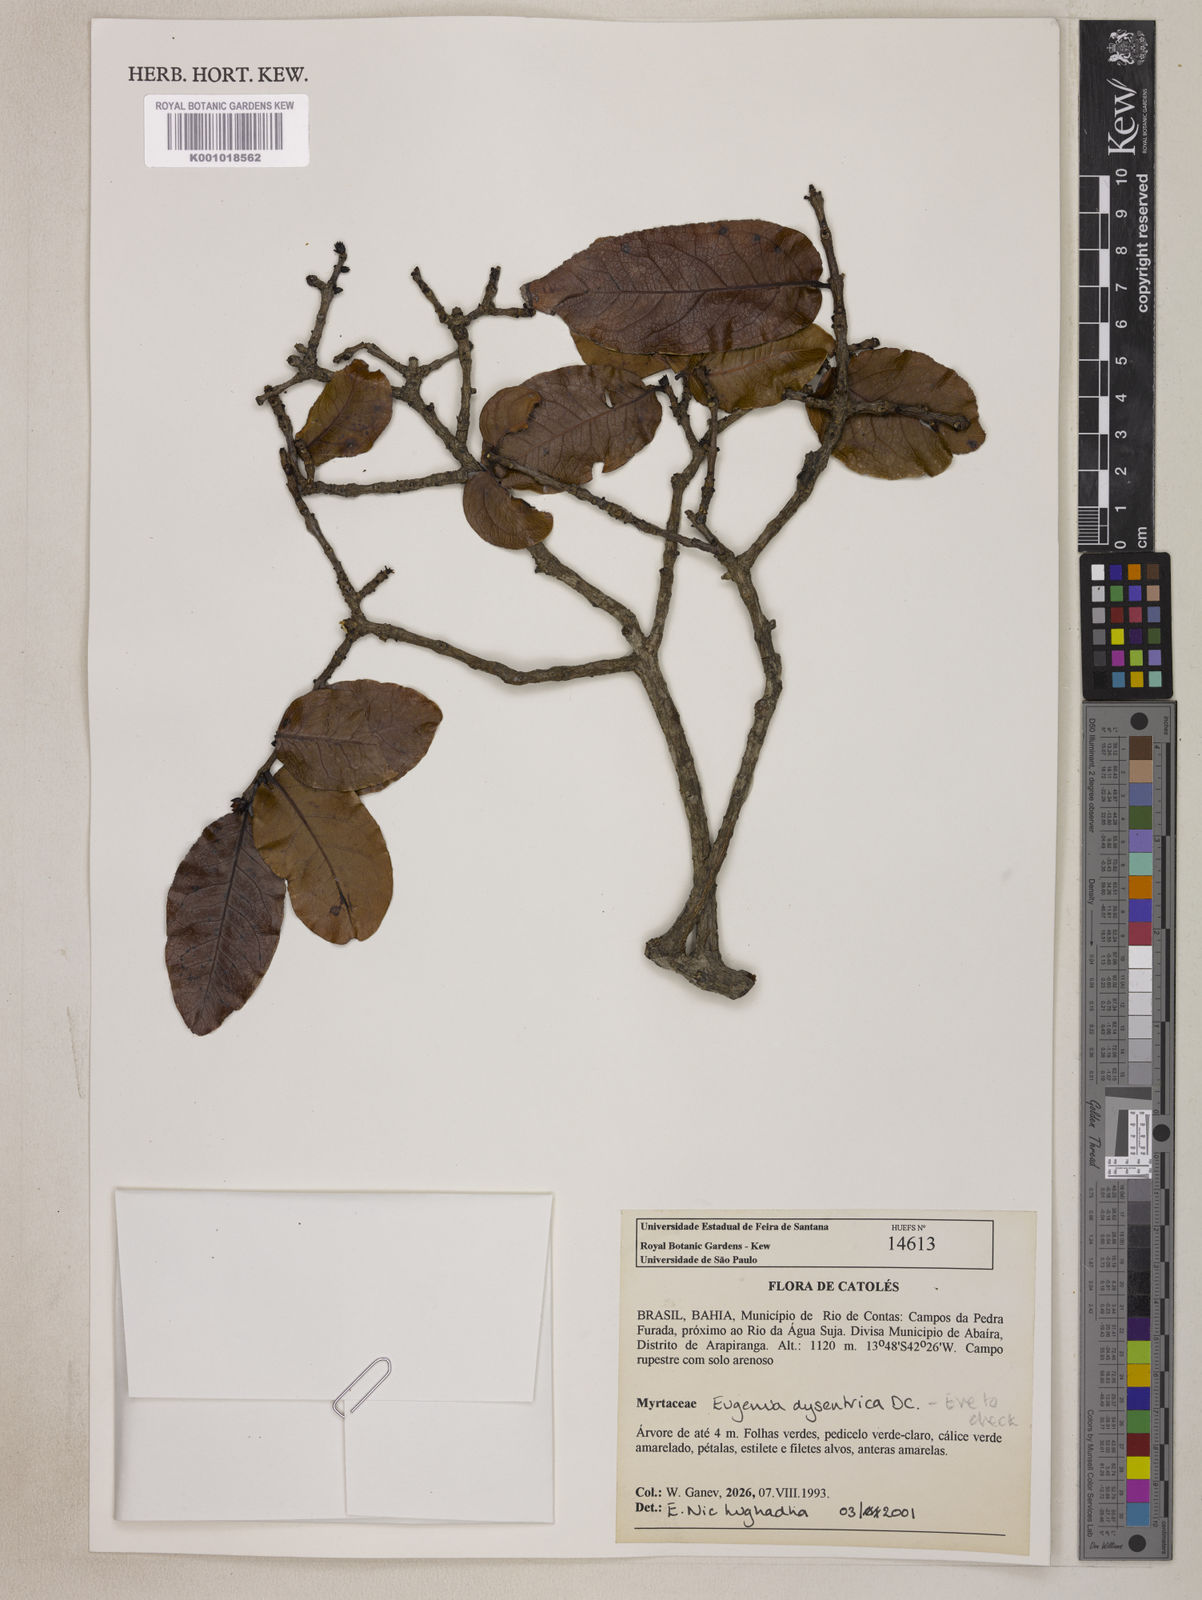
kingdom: Plantae
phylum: Tracheophyta
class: Magnoliopsida
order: Myrtales
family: Myrtaceae
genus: Eugenia
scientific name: Eugenia dysenterica
